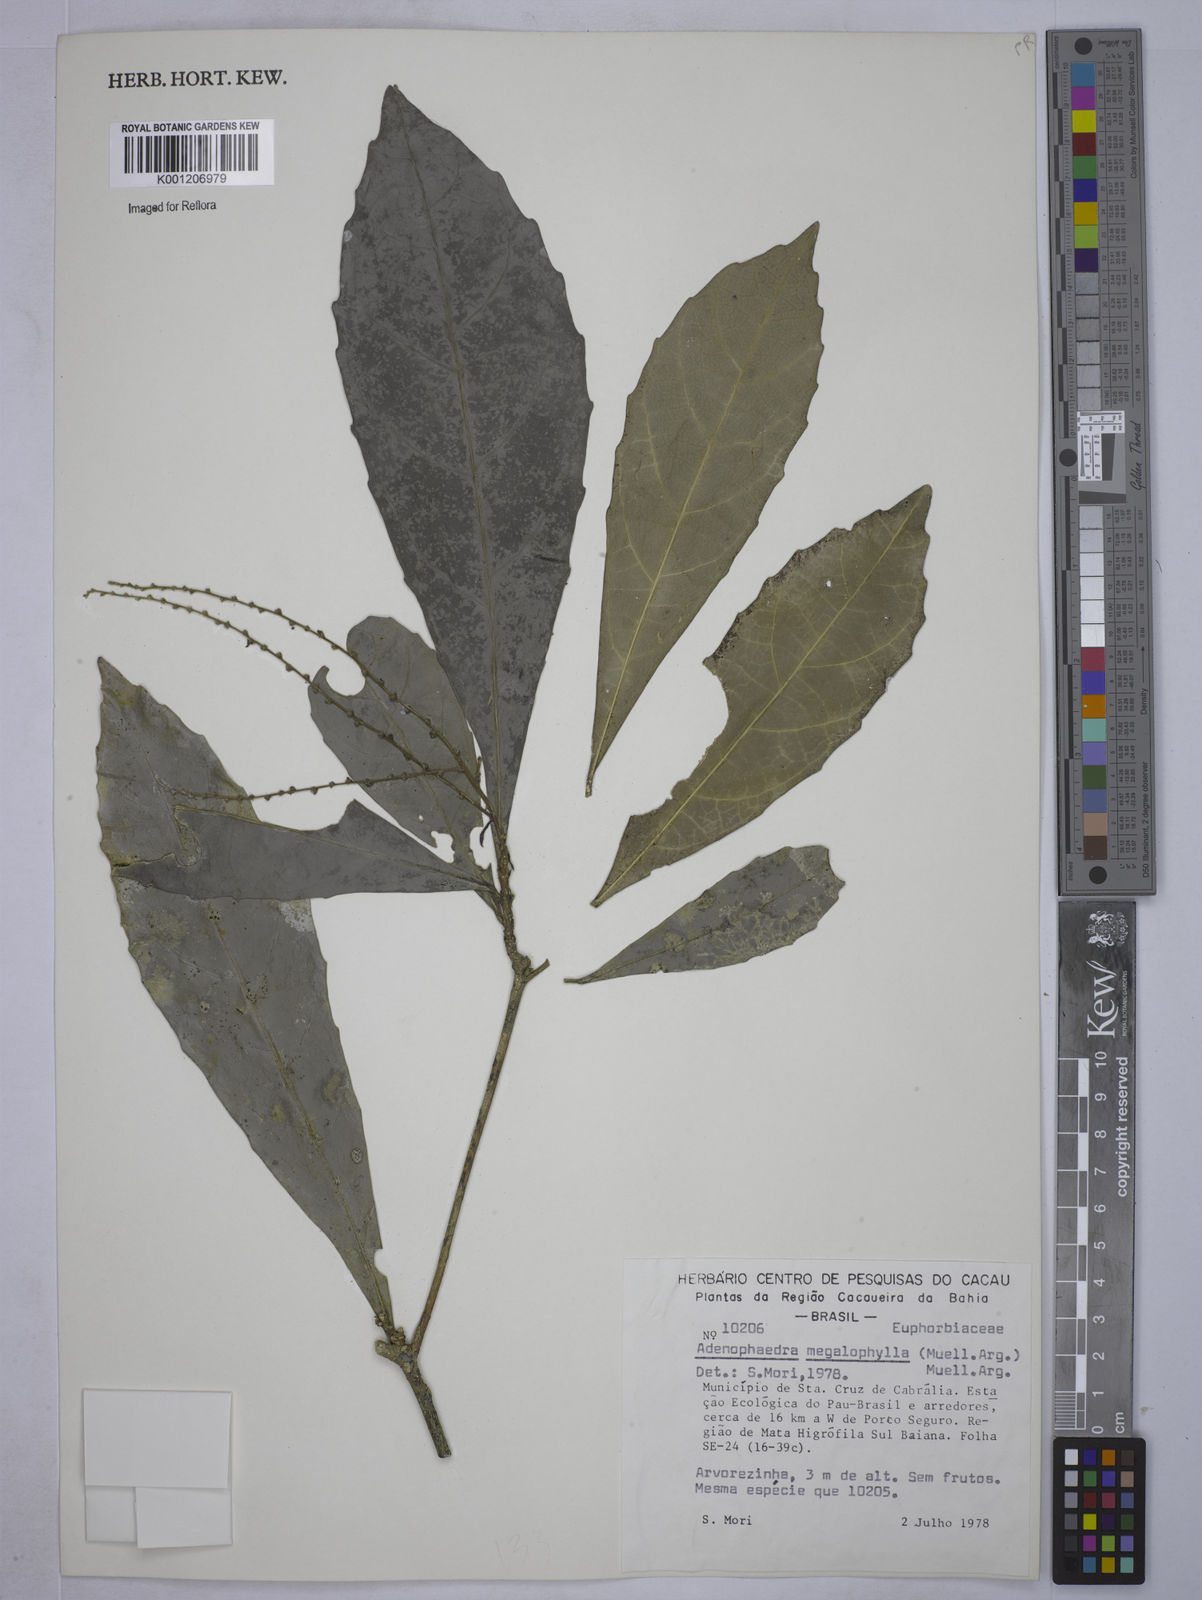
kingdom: Plantae
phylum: Tracheophyta
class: Magnoliopsida
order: Malpighiales
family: Euphorbiaceae
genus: Adenophaedra
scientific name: Adenophaedra
